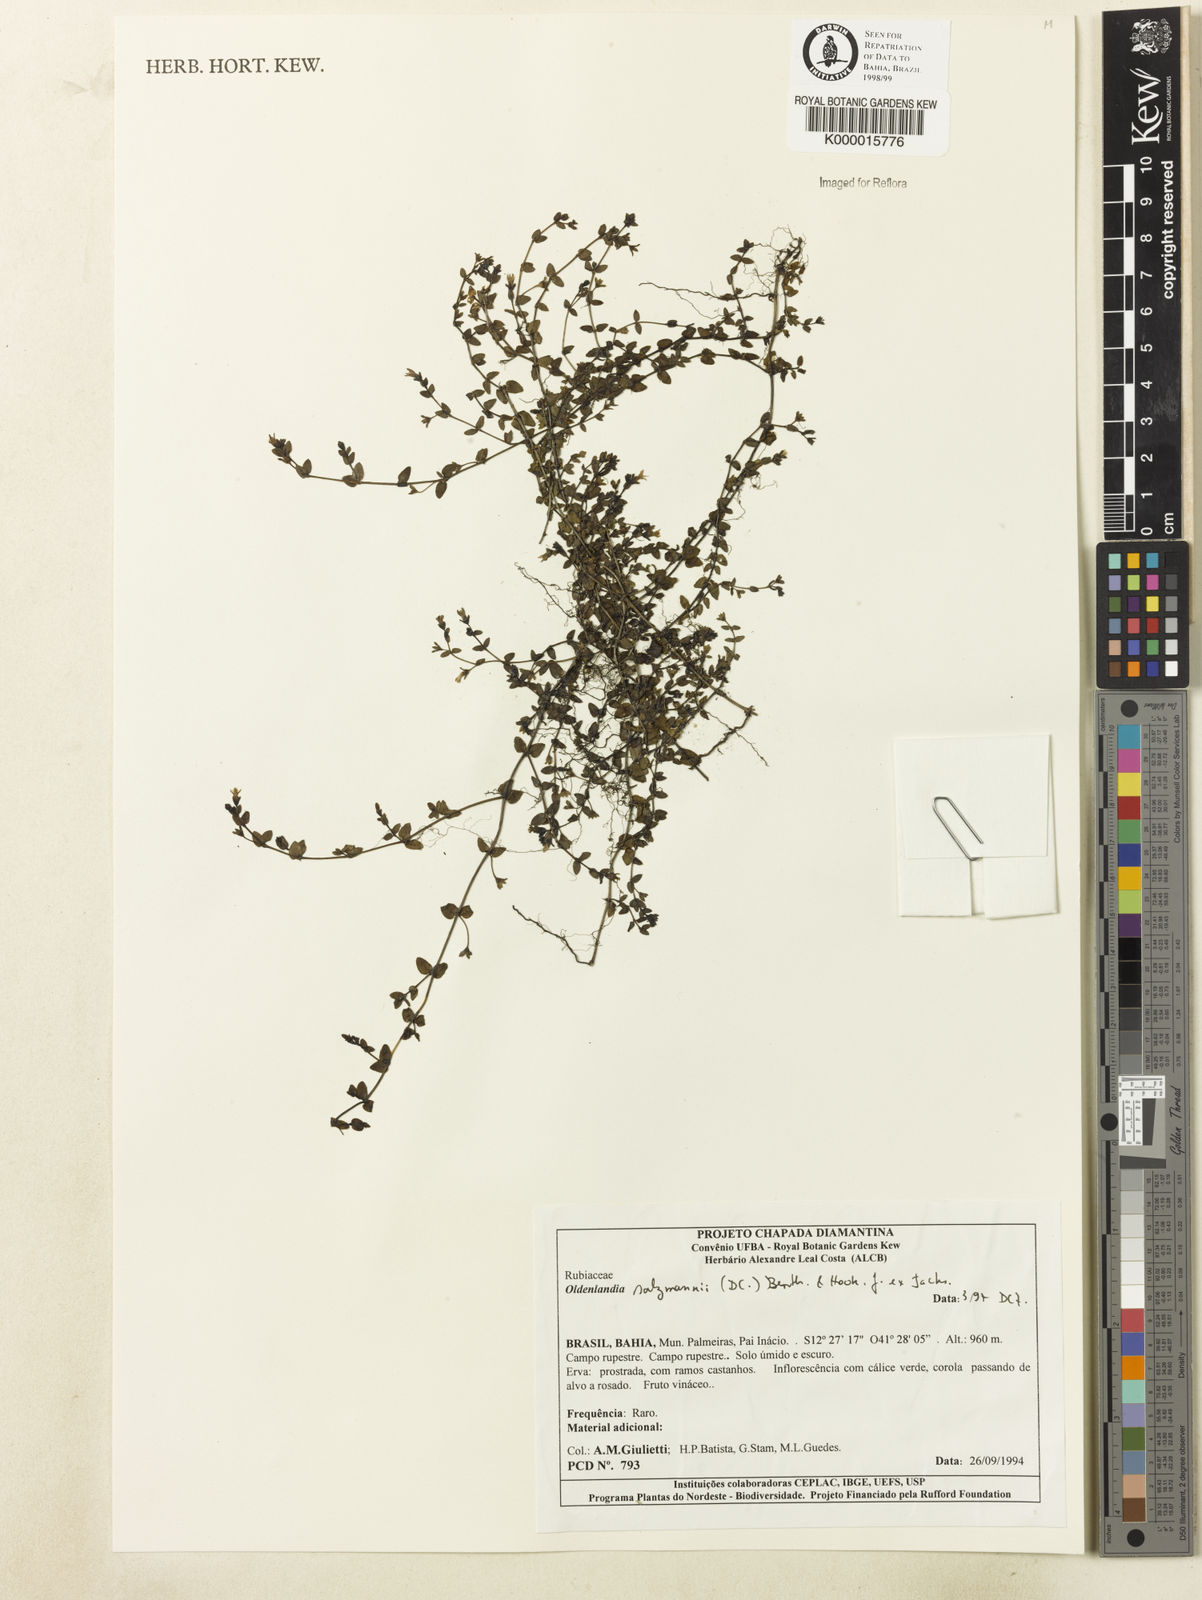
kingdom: Plantae
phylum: Tracheophyta
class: Magnoliopsida
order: Gentianales
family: Rubiaceae
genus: Oldenlandia
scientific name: Oldenlandia salzmannii
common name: Salzmann's mille graines
